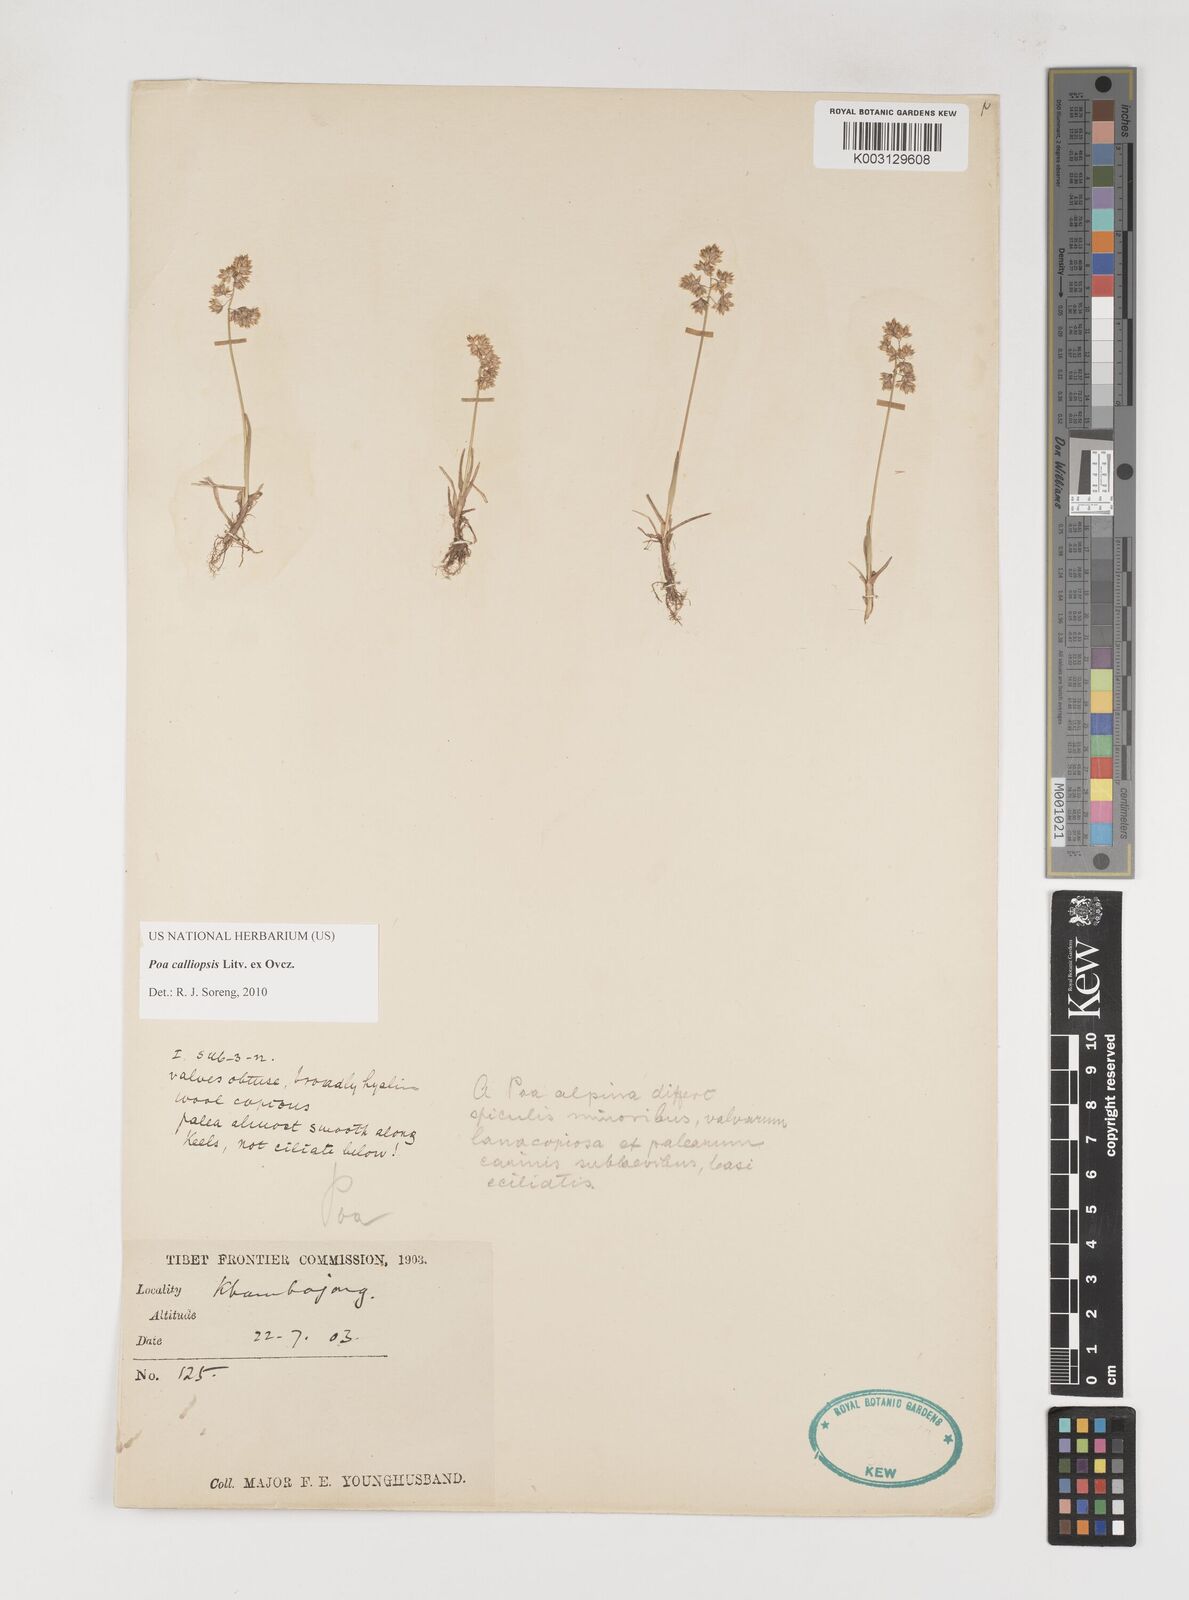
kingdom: Plantae
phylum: Tracheophyta
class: Liliopsida
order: Poales
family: Poaceae
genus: Poa
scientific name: Poa calliopsis
